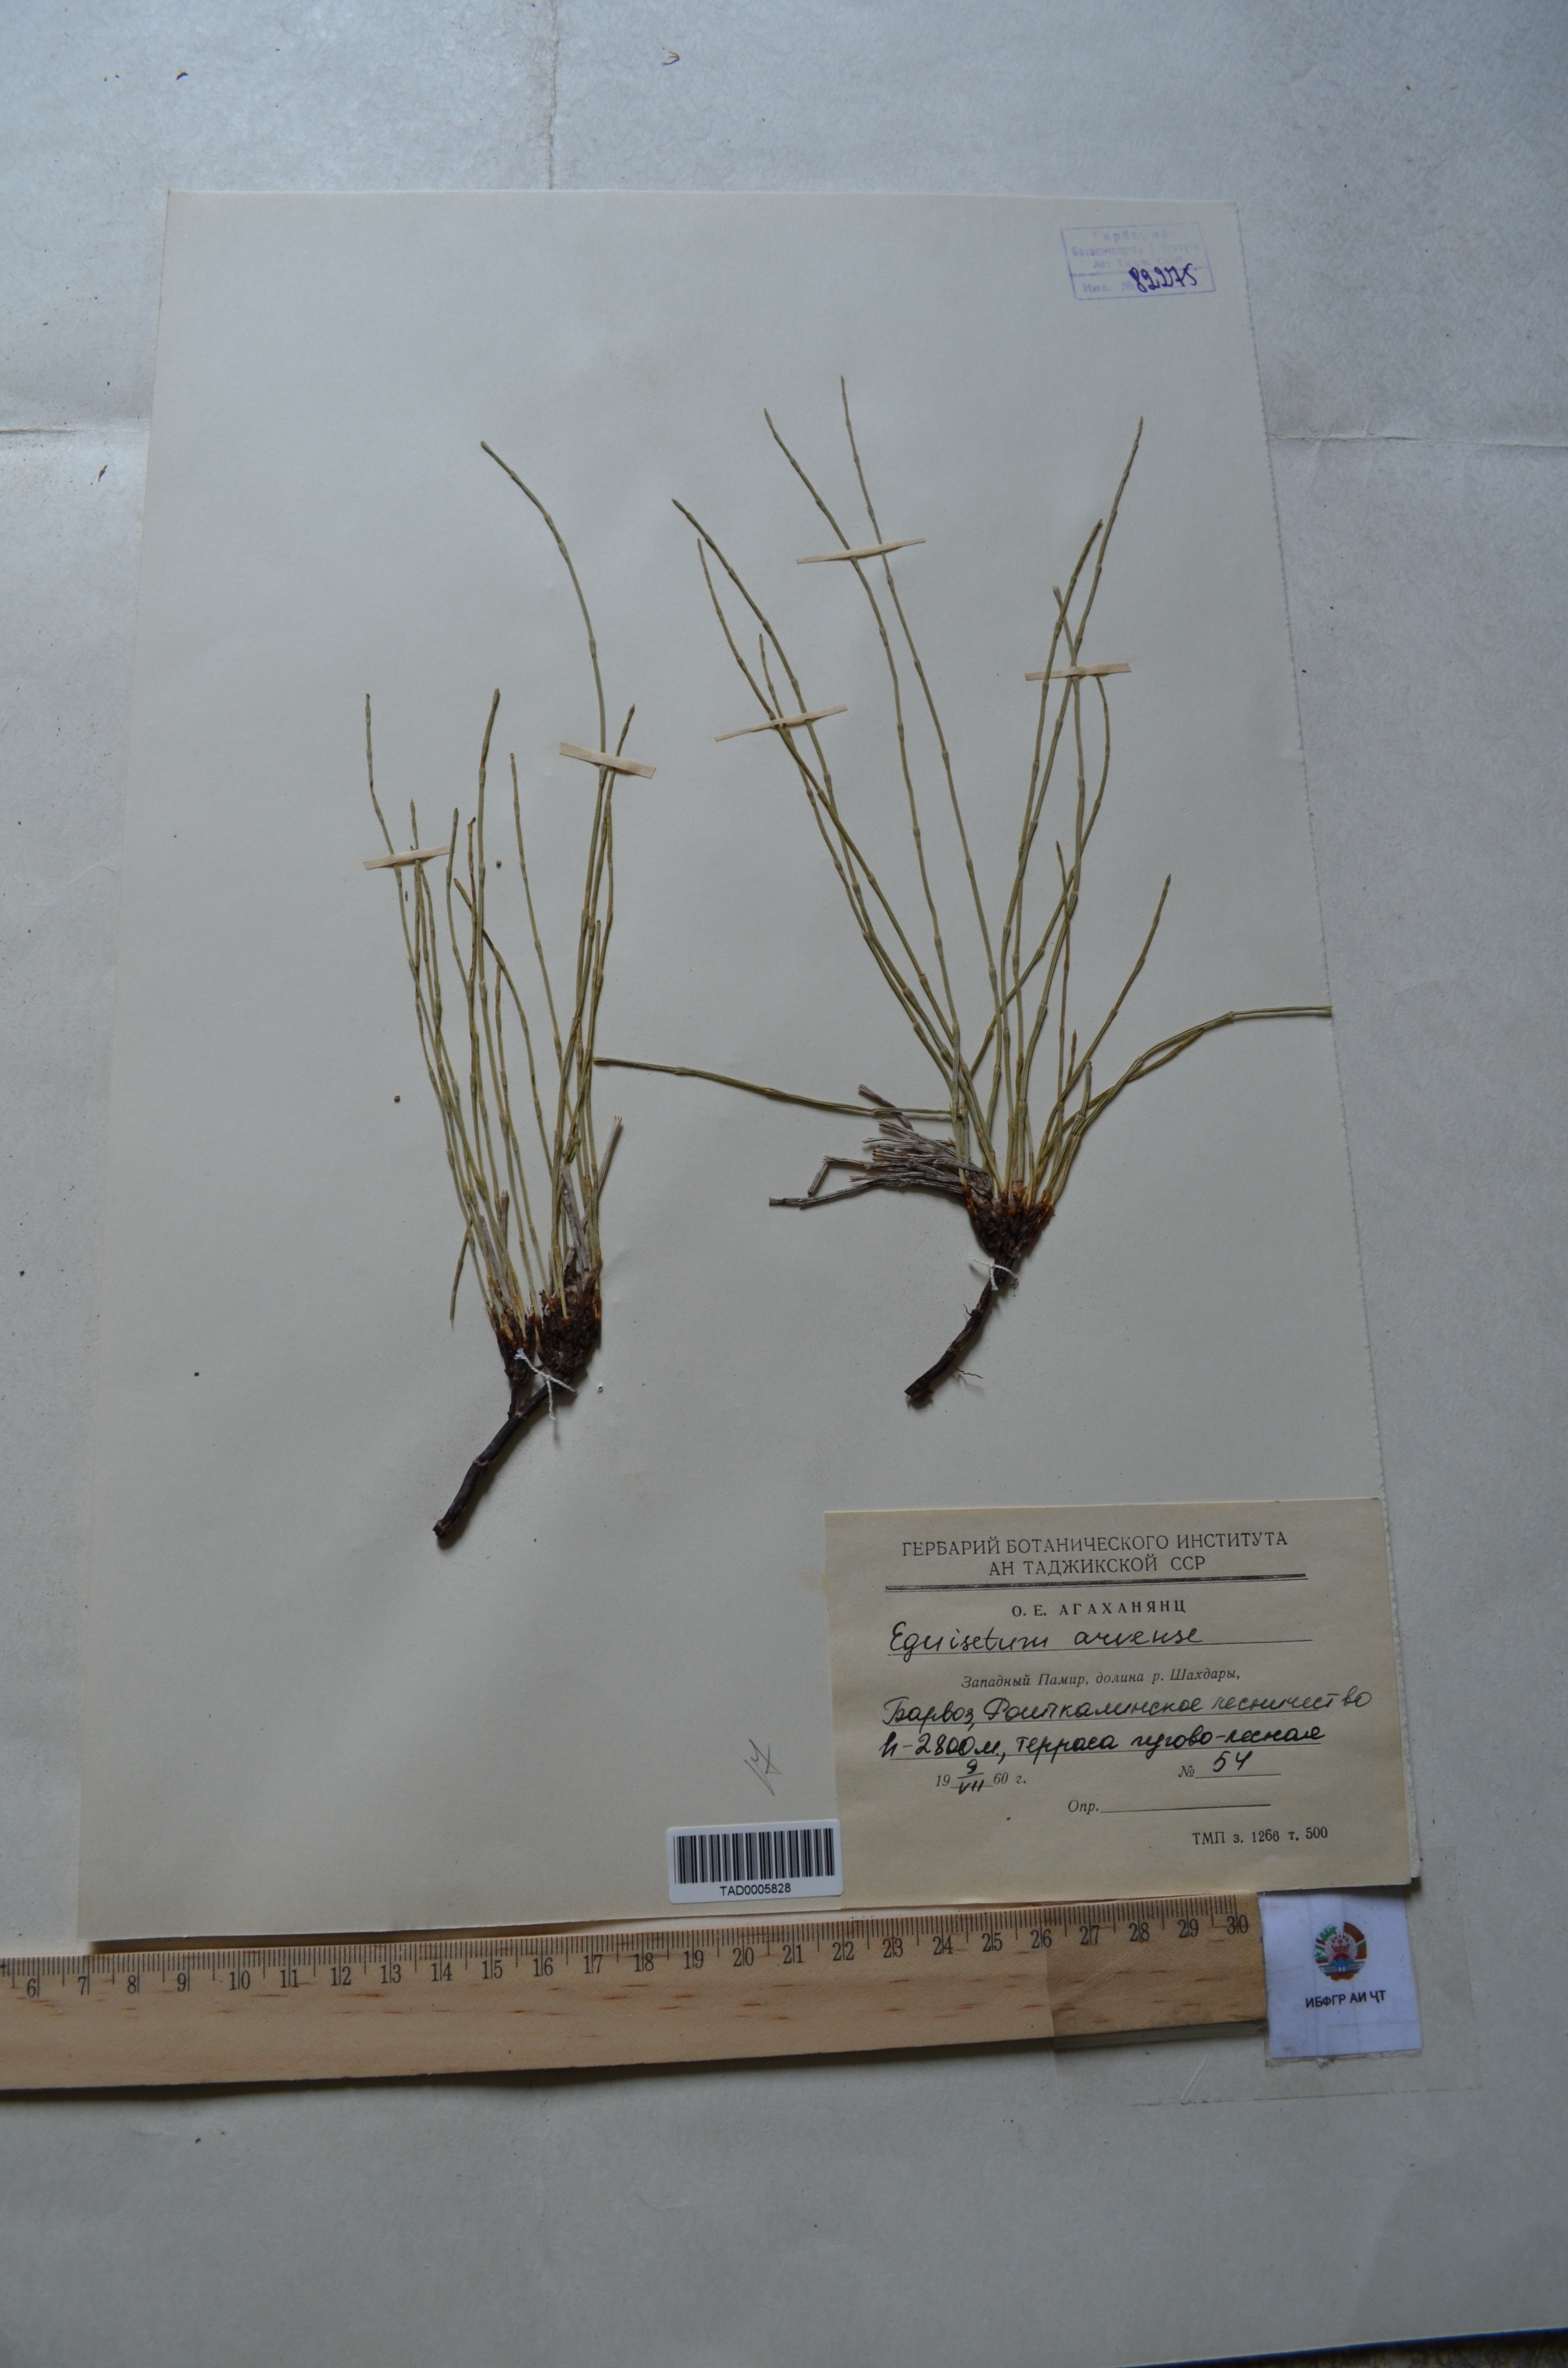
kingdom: Plantae
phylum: Tracheophyta
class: Polypodiopsida
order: Equisetales
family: Equisetaceae
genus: Equisetum
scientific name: Equisetum arvense
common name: Field horsetail
